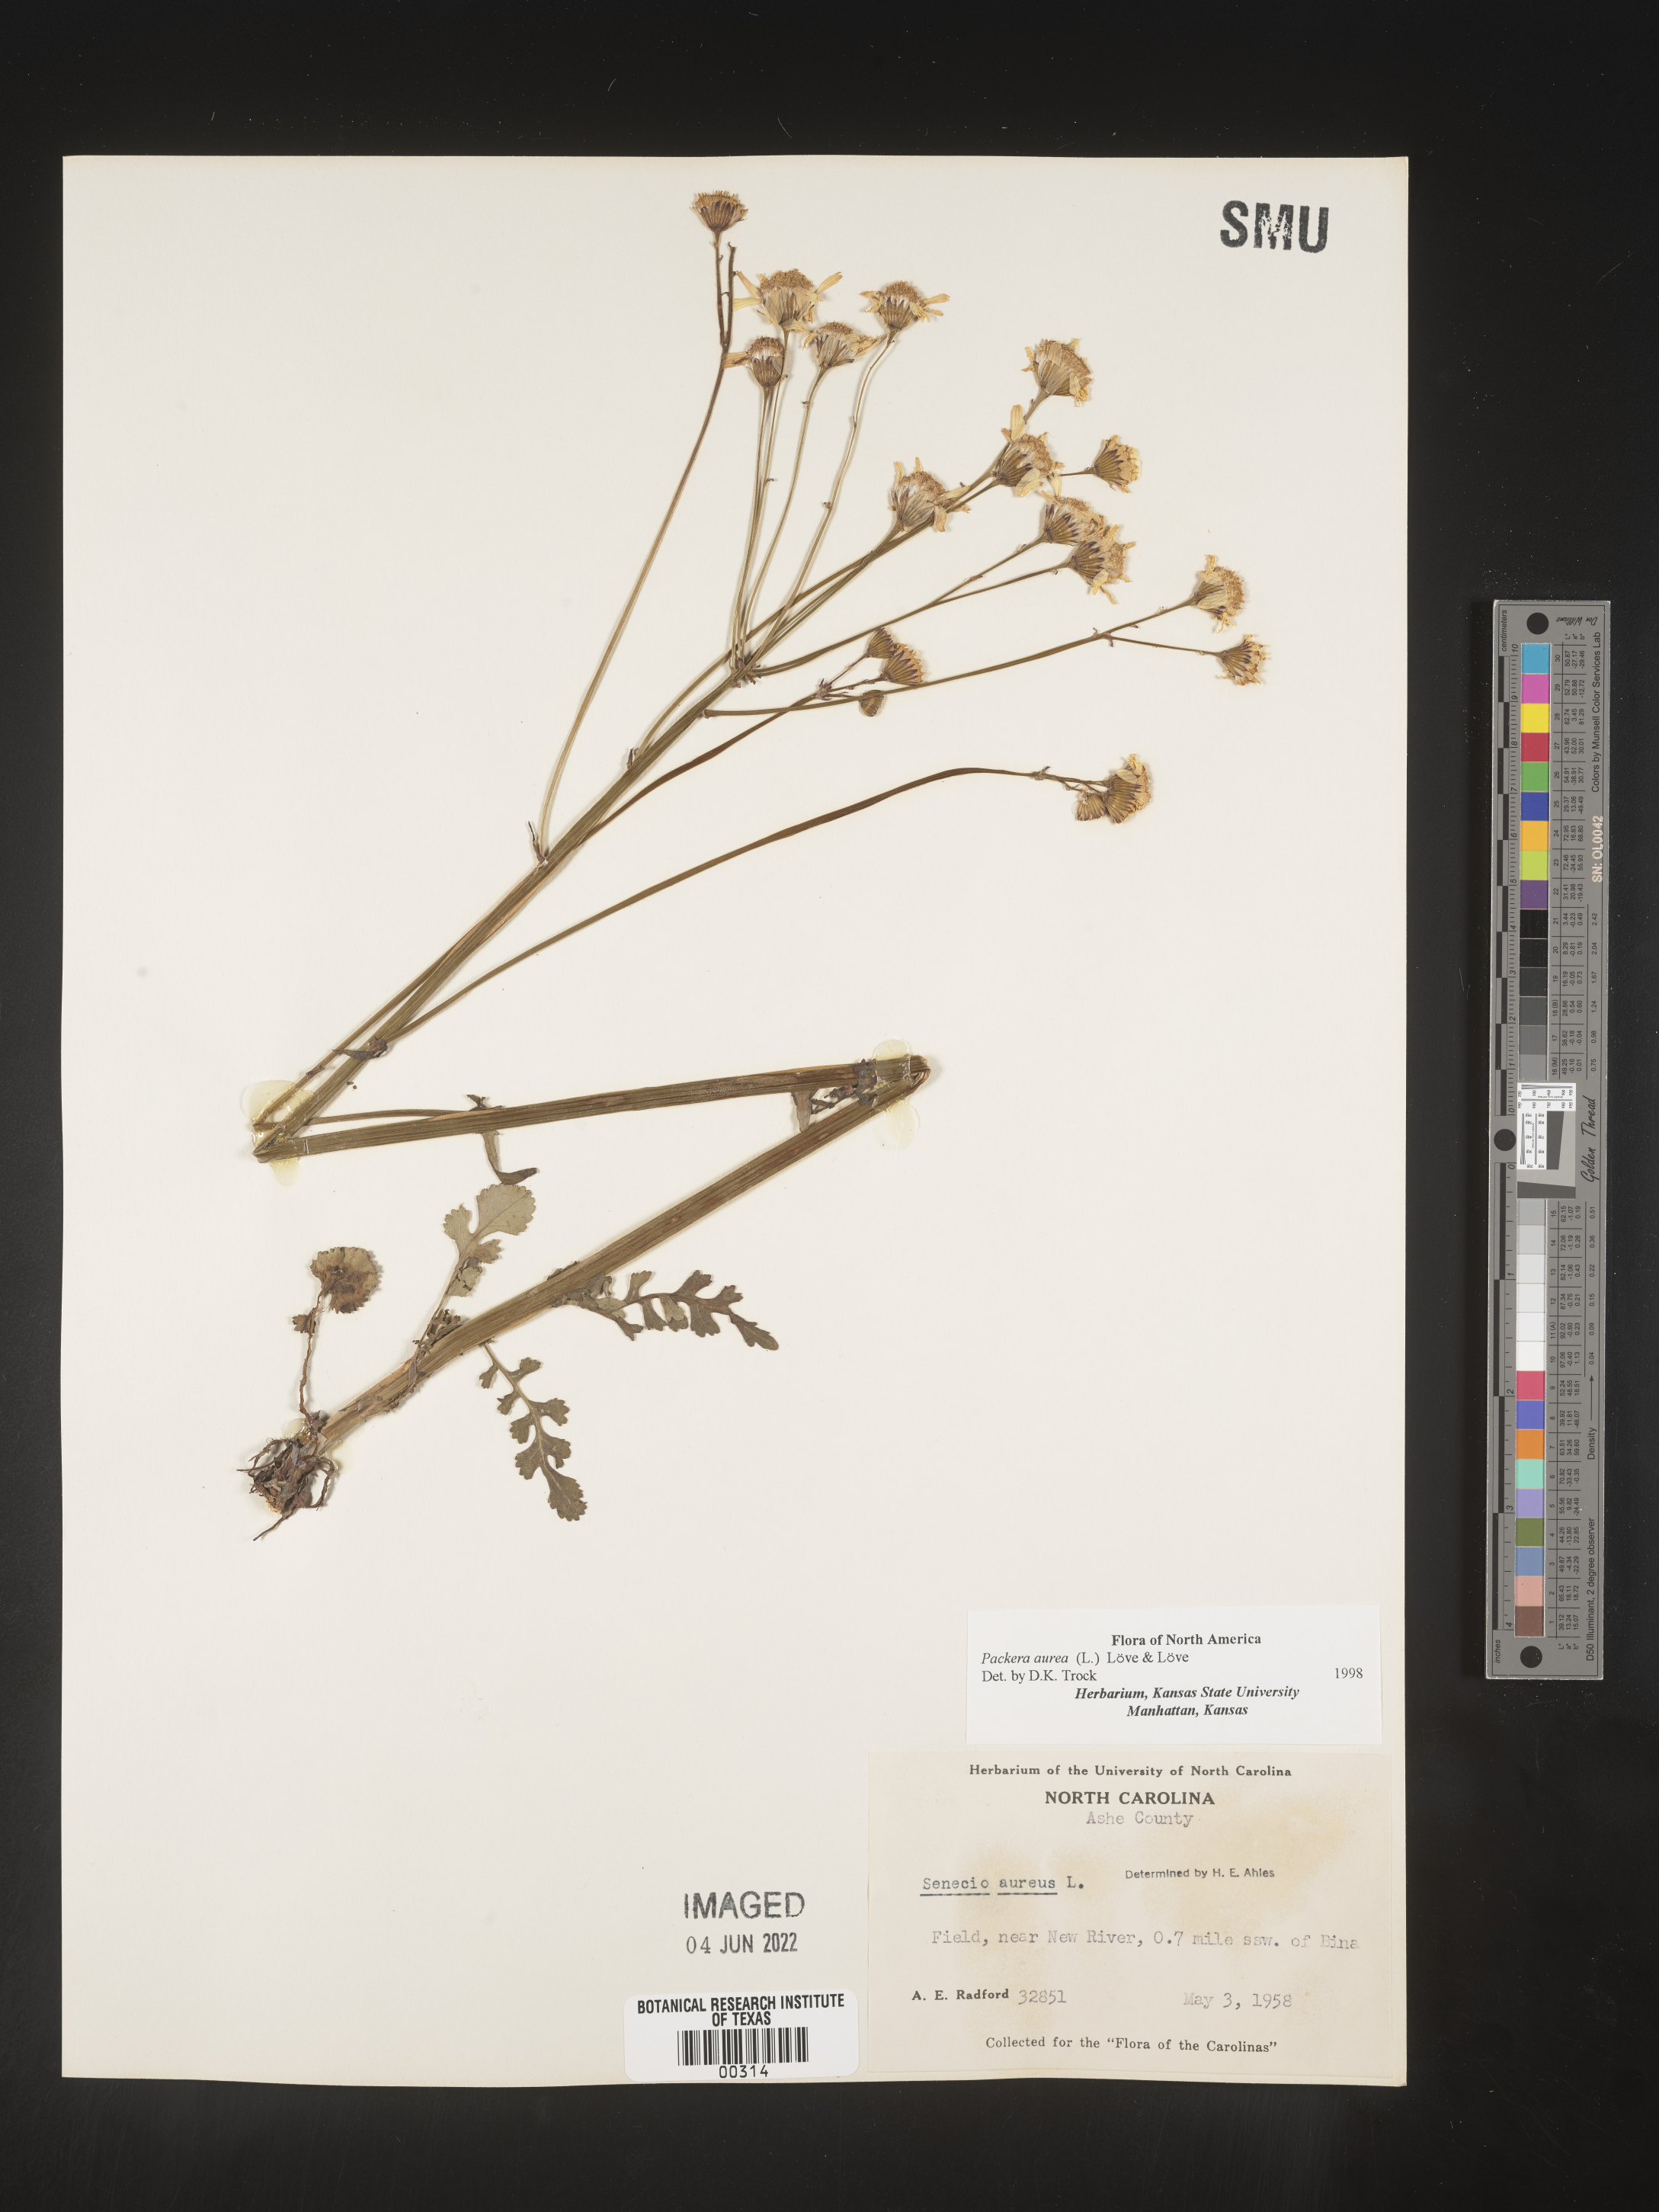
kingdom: Plantae
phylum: Tracheophyta
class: Magnoliopsida
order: Asterales
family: Asteraceae
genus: Packera
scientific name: Packera aurea
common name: Golden groundsel
